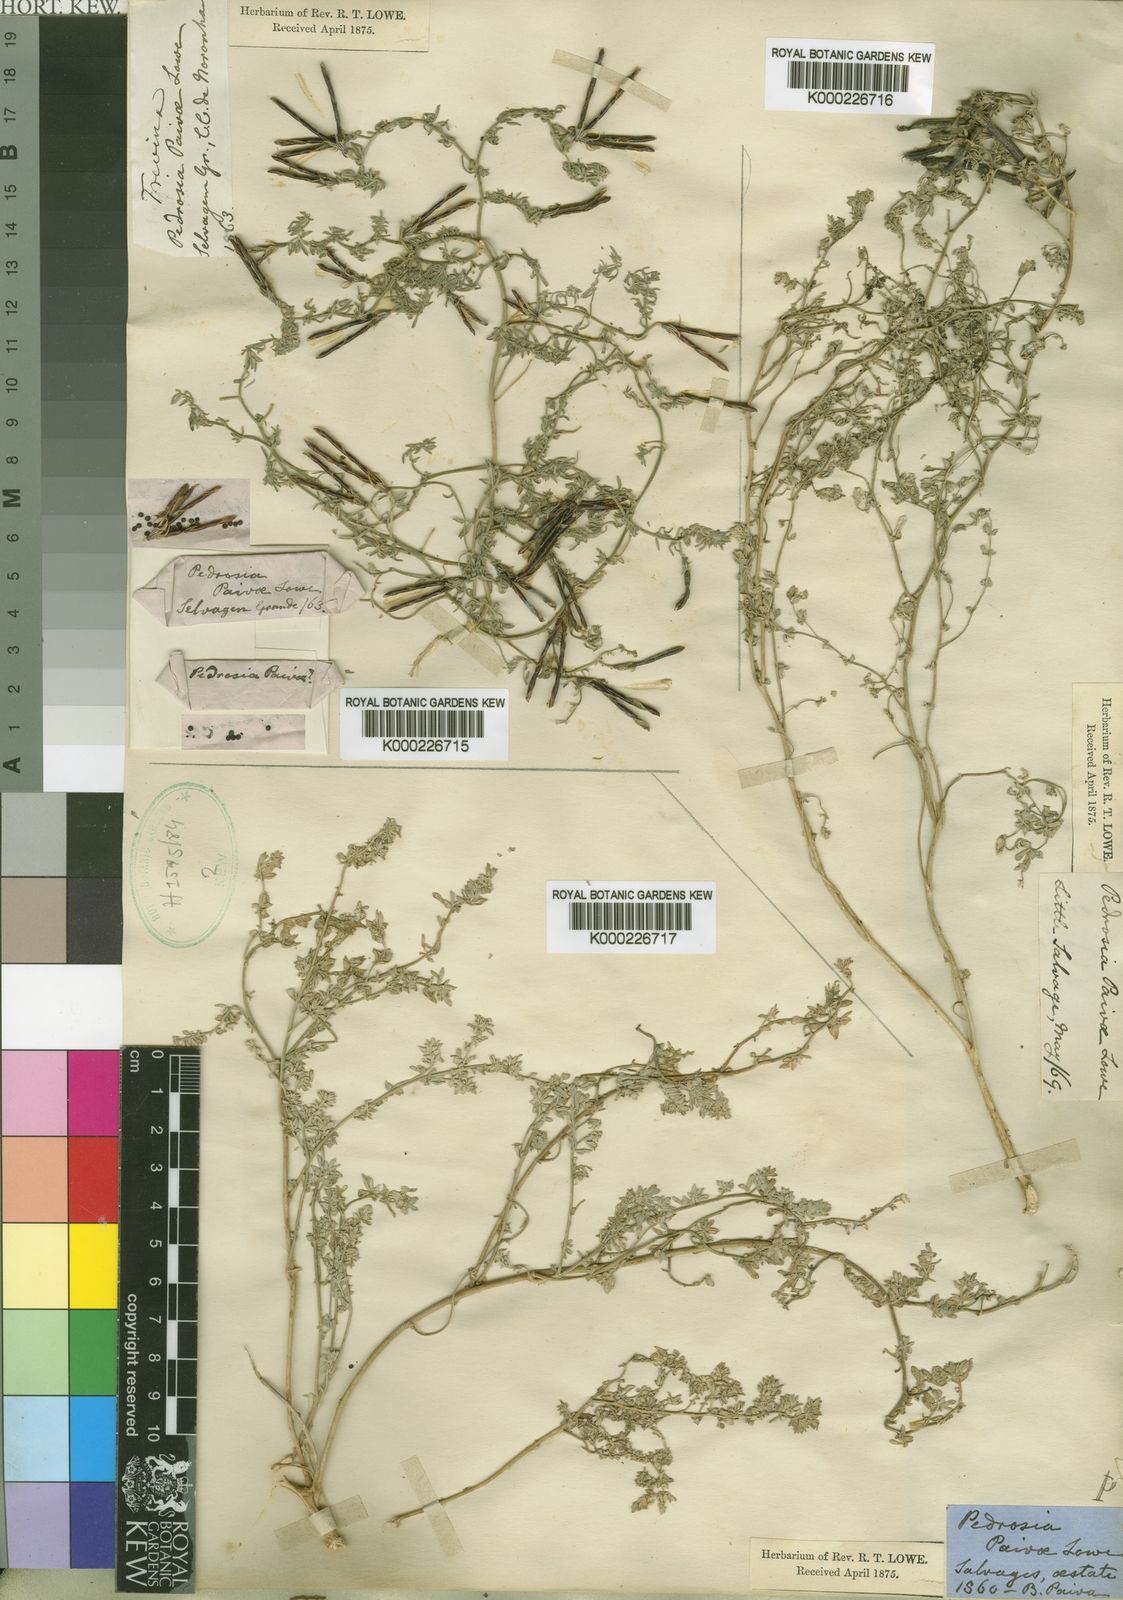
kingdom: Plantae
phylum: Tracheophyta
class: Magnoliopsida
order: Fabales
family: Fabaceae
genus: Lotus
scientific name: Lotus
